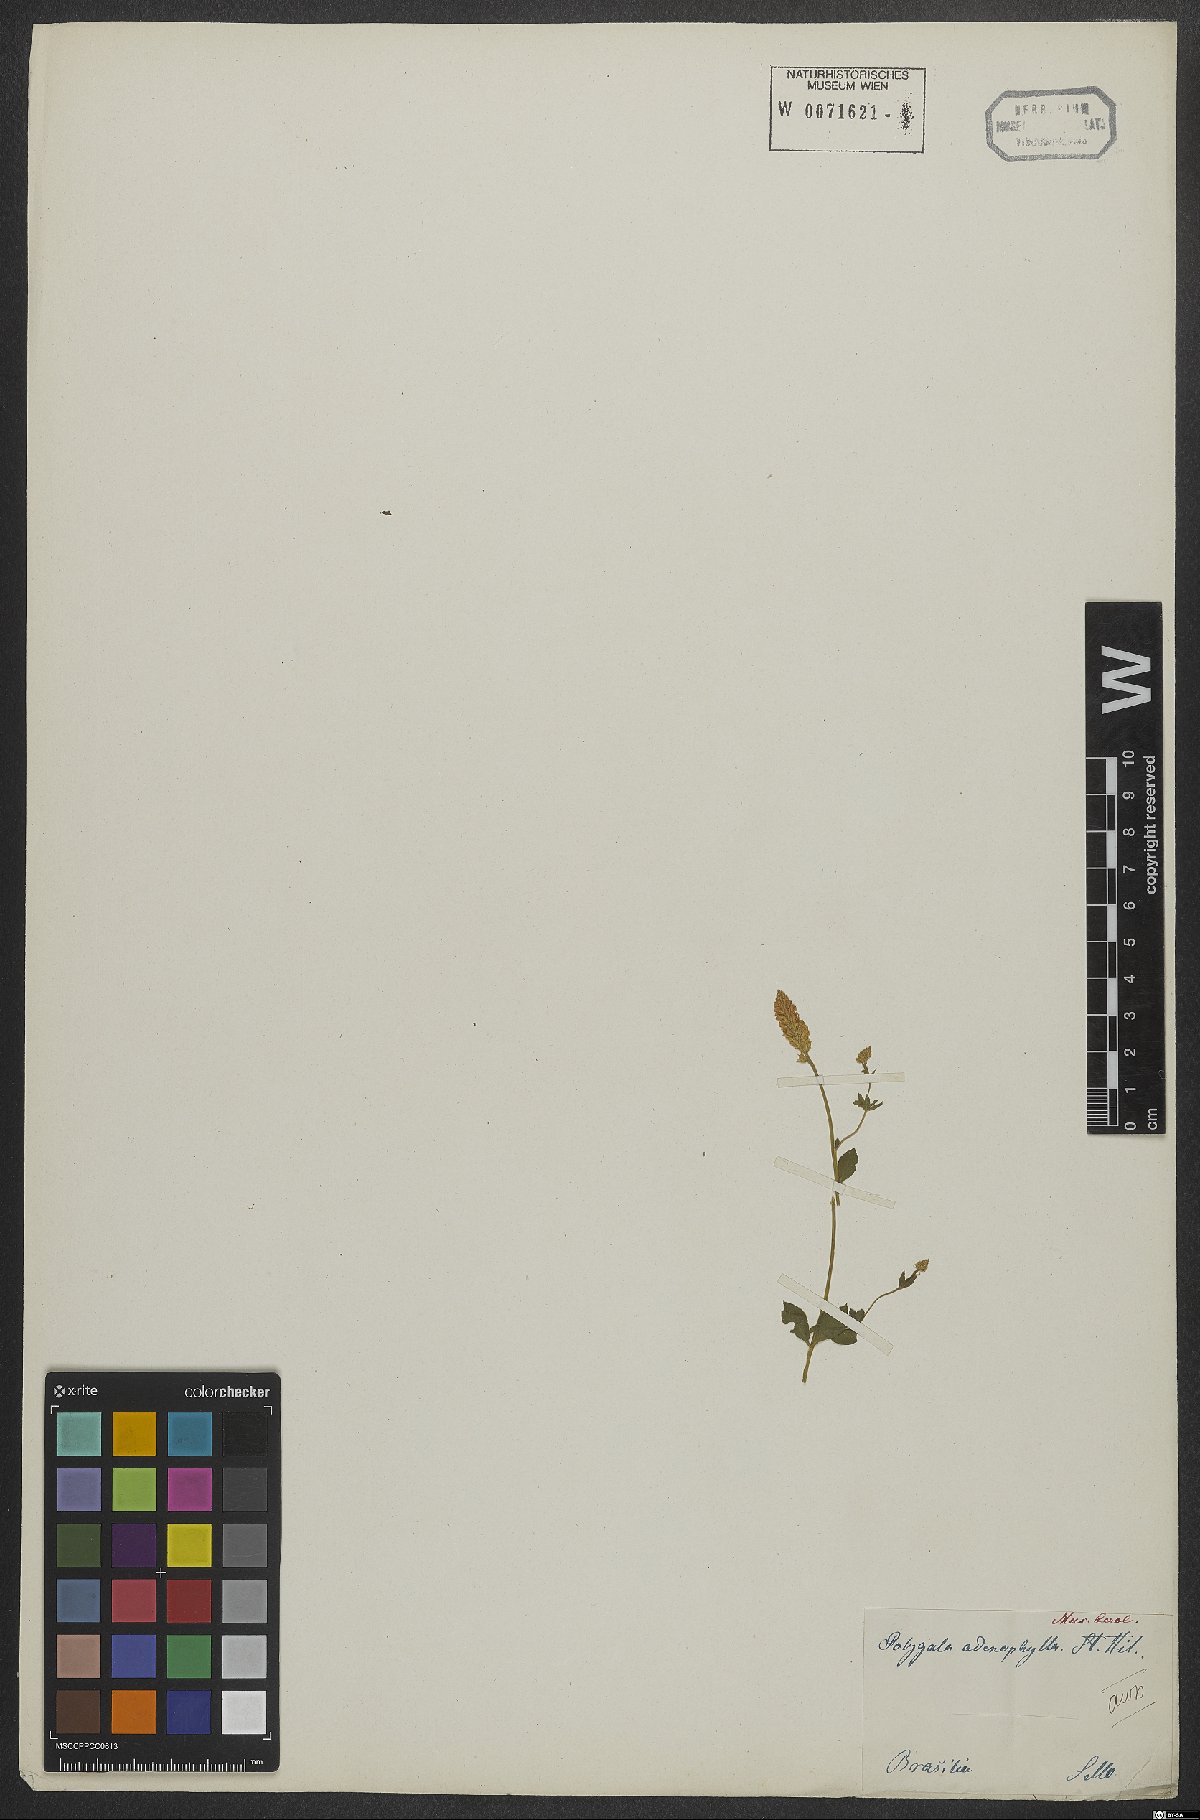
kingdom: Plantae
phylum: Tracheophyta
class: Magnoliopsida
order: Fabales
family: Polygalaceae
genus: Polygala
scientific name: Polygala adenophylla
